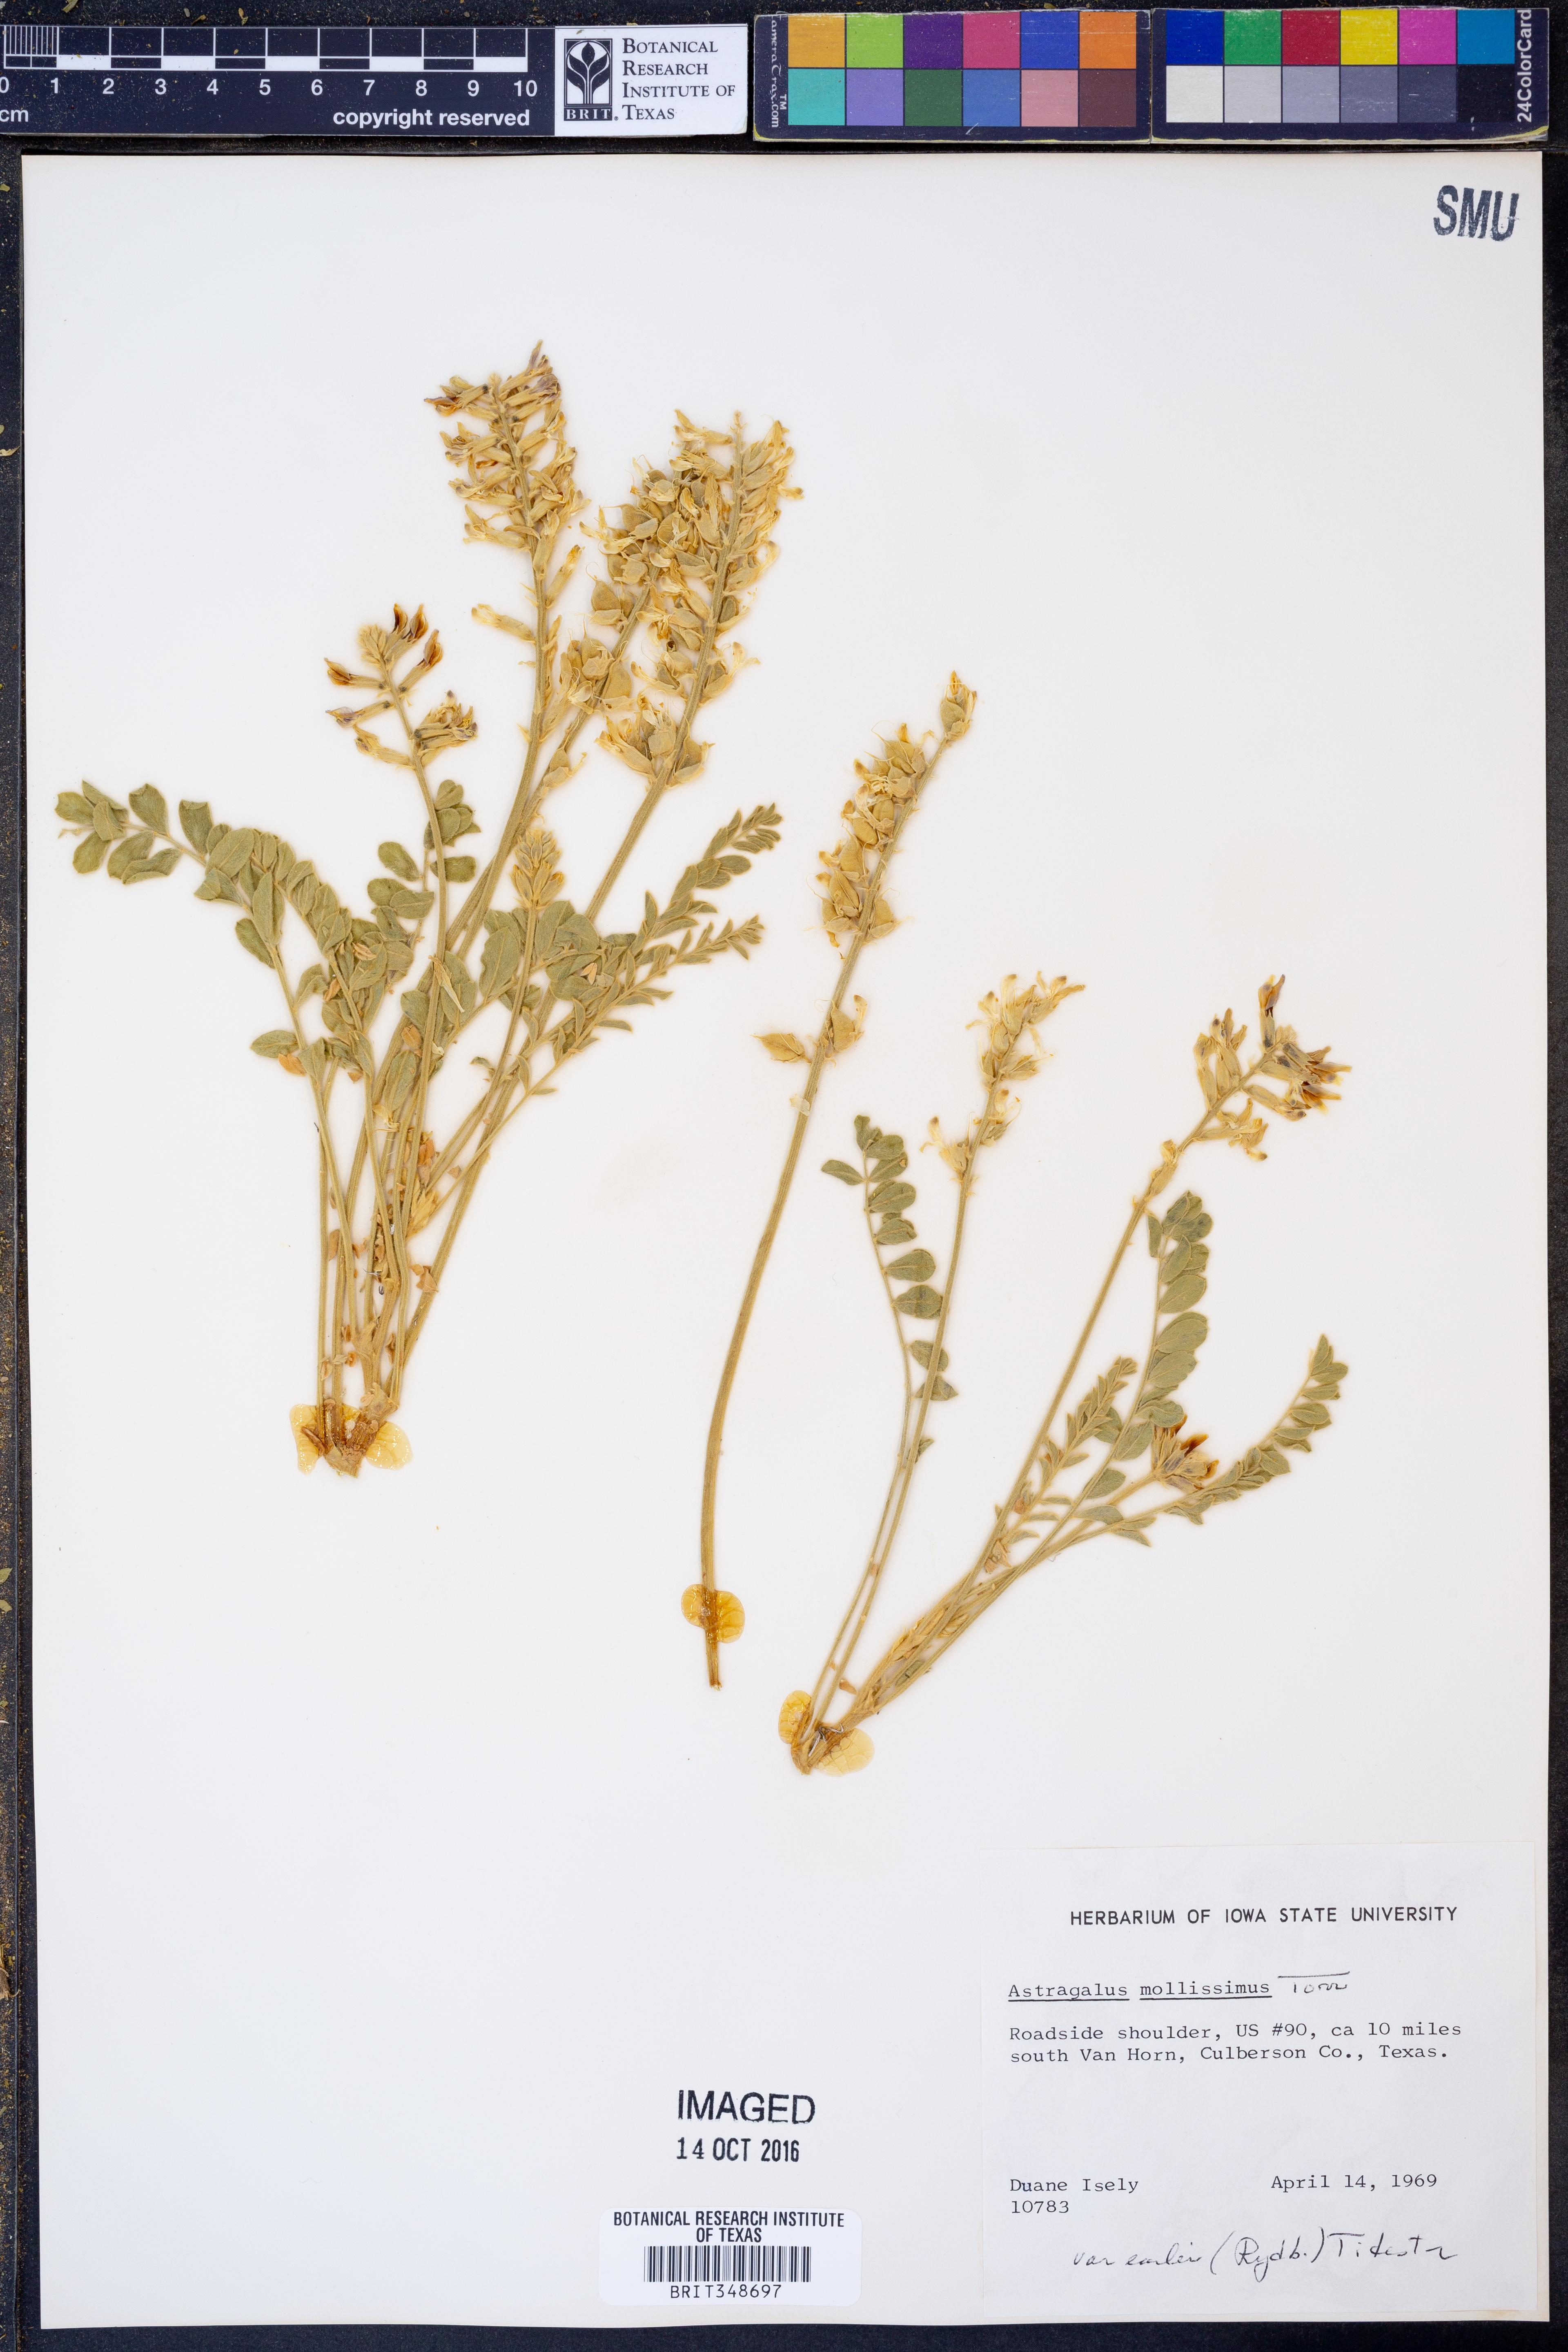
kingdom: Plantae
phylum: Tracheophyta
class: Magnoliopsida
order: Fabales
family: Fabaceae
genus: Astragalus
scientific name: Astragalus mollissimus
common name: Woolly locoweed
